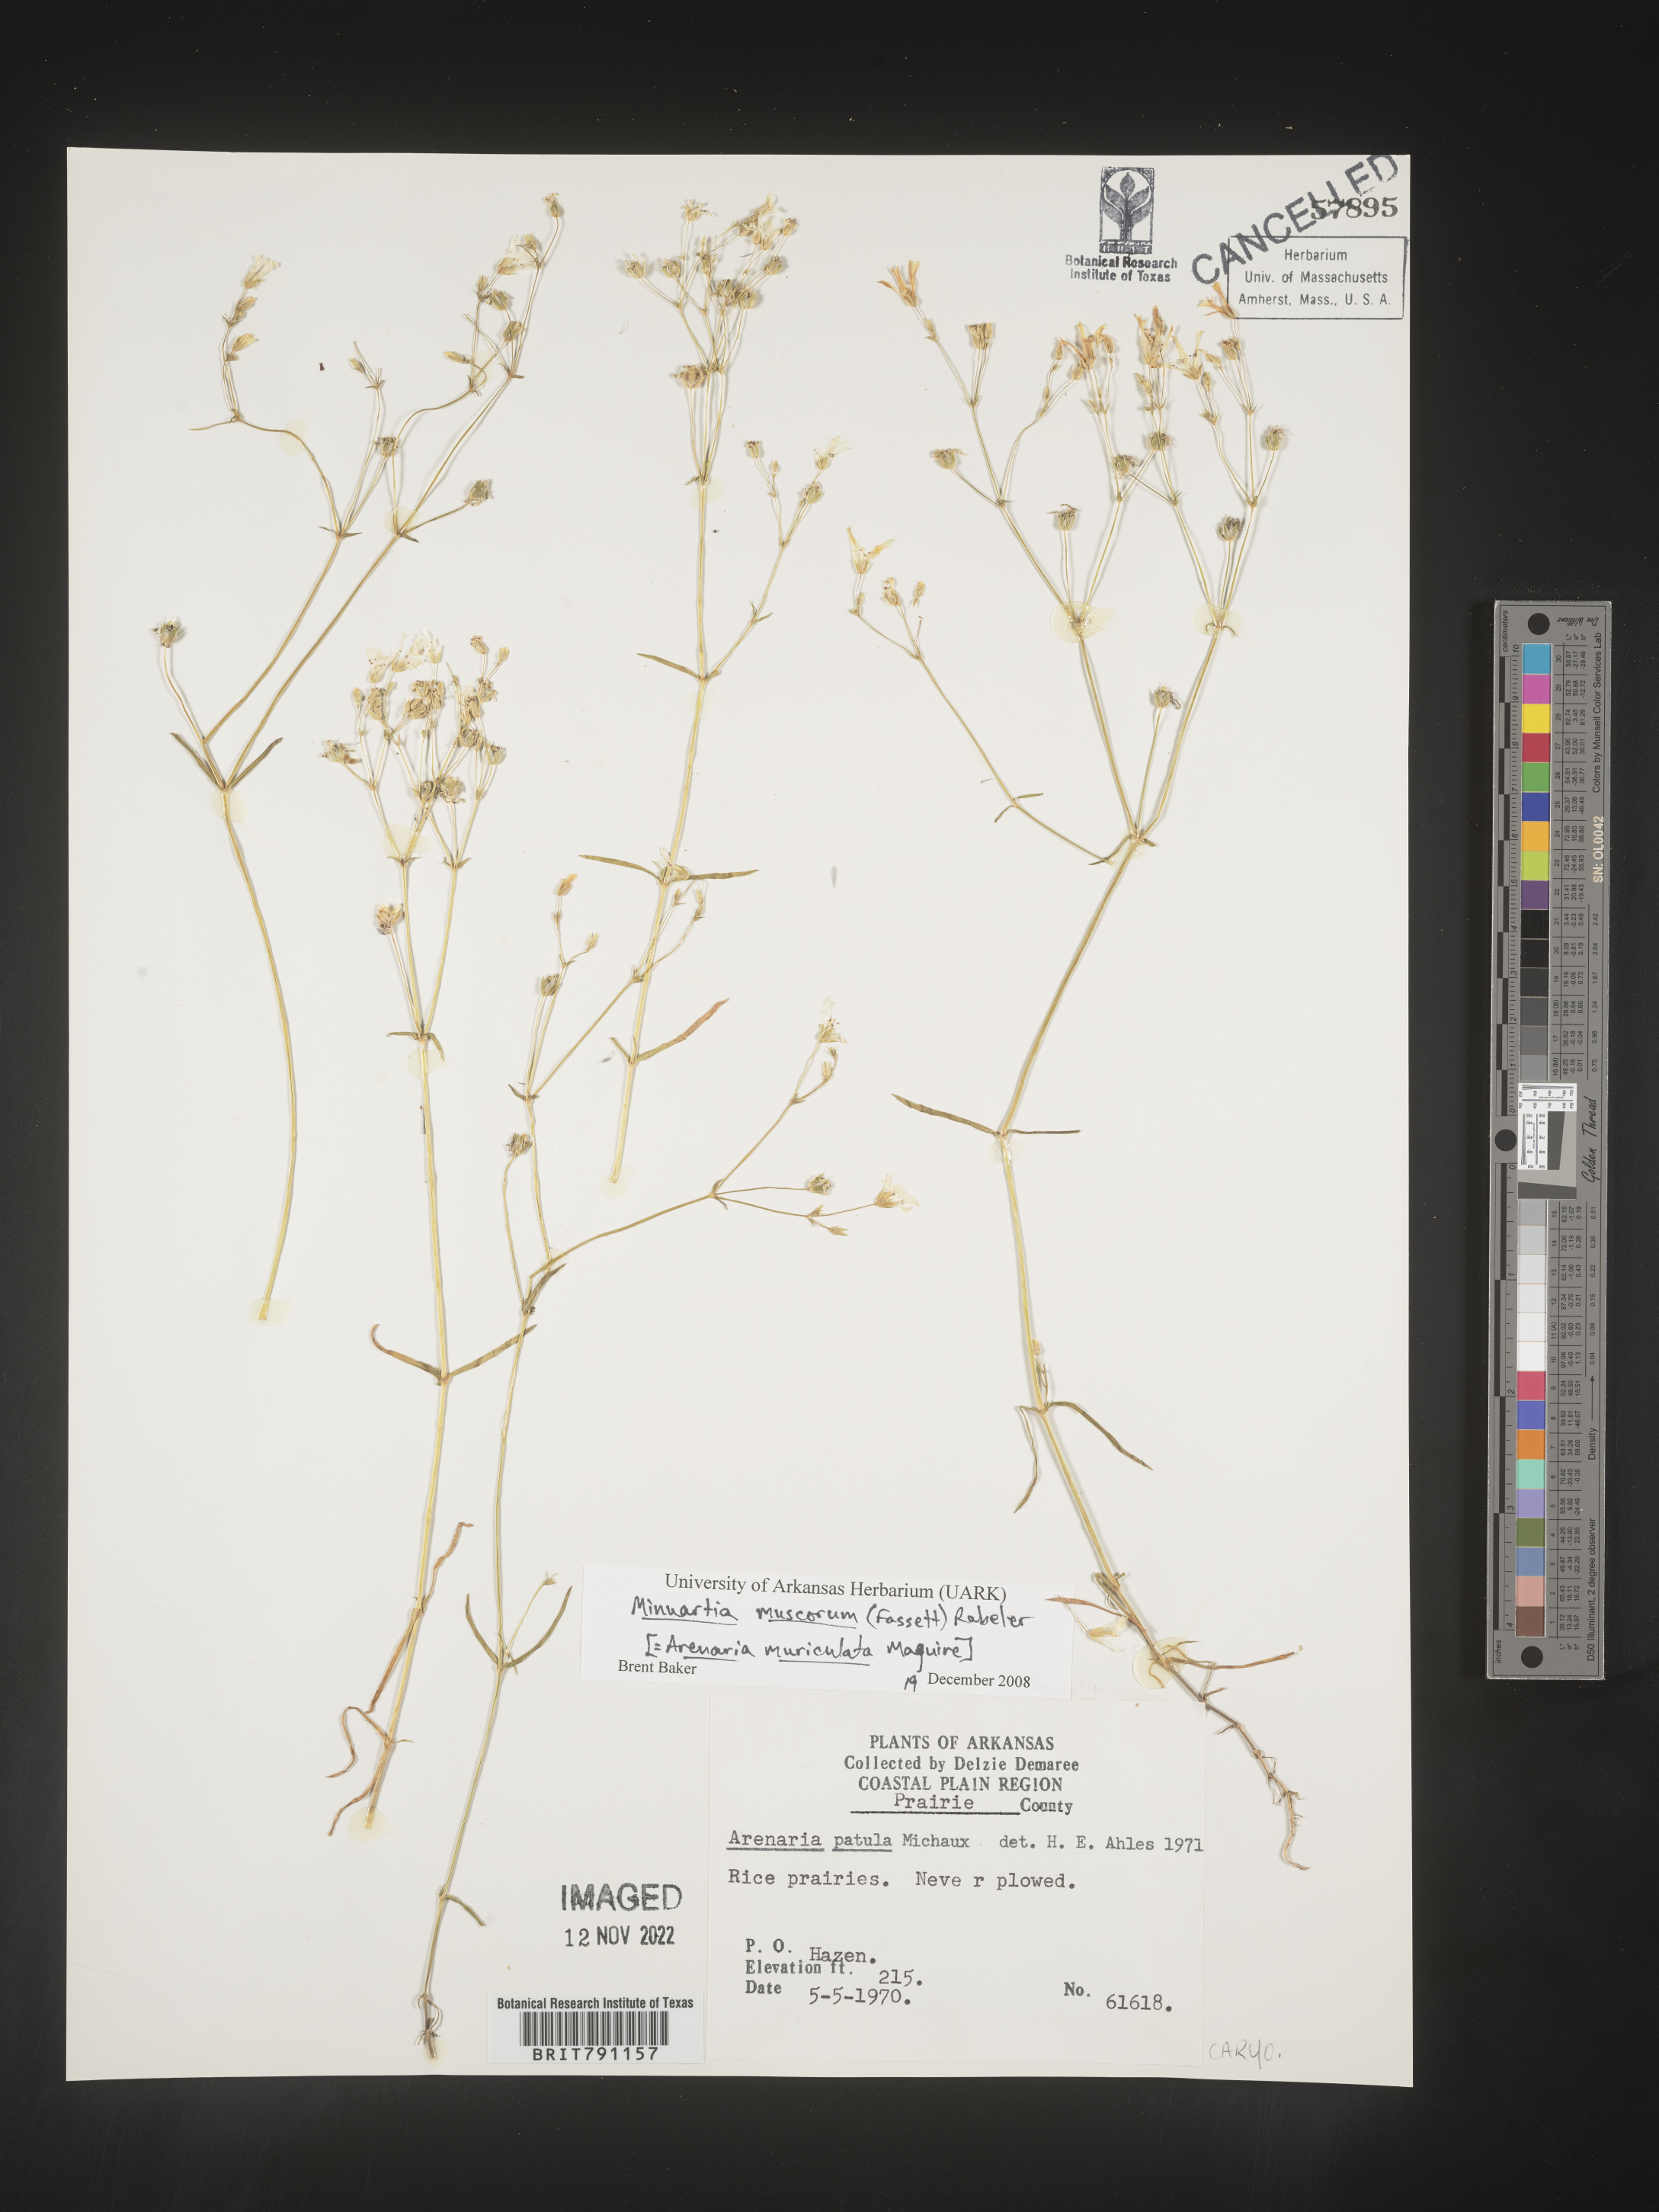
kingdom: Plantae
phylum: Tracheophyta
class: Magnoliopsida
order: Caryophyllales
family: Caryophyllaceae
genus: Mononeuria
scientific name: Mononeuria muscorum
